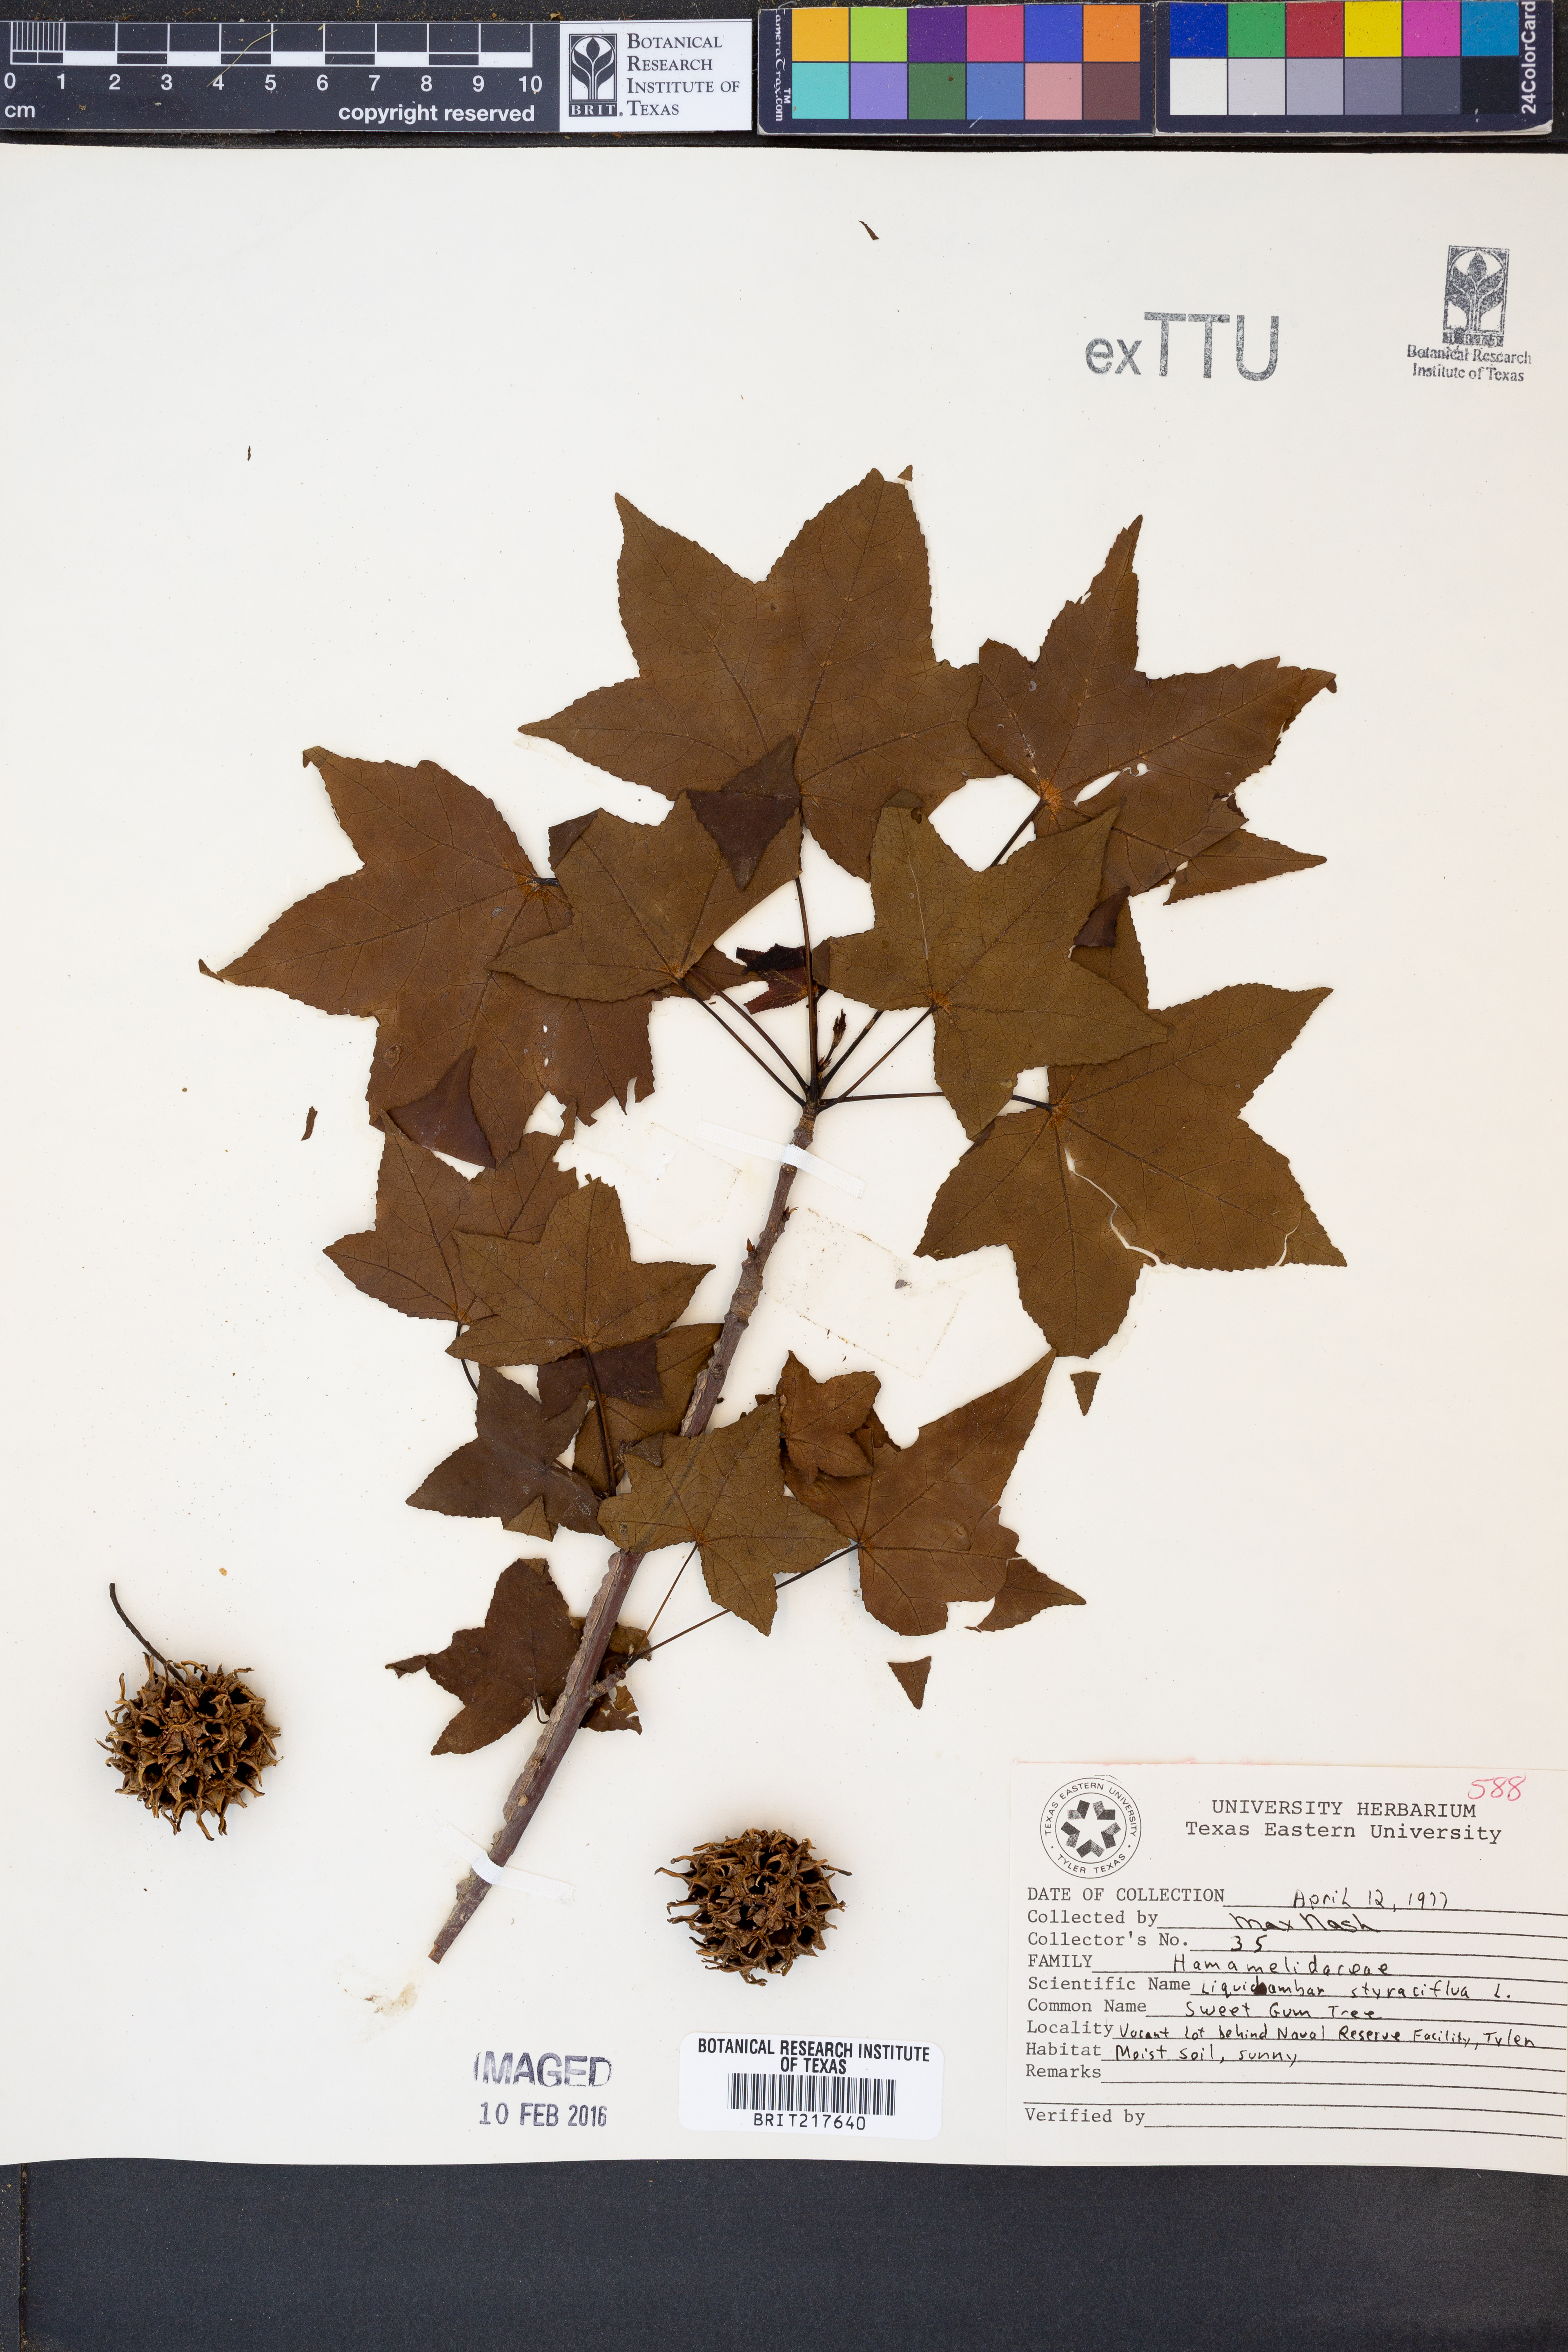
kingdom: Plantae
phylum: Tracheophyta
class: Magnoliopsida
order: Saxifragales
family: Altingiaceae
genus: Liquidambar
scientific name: Liquidambar styraciflua
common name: Sweet gum
